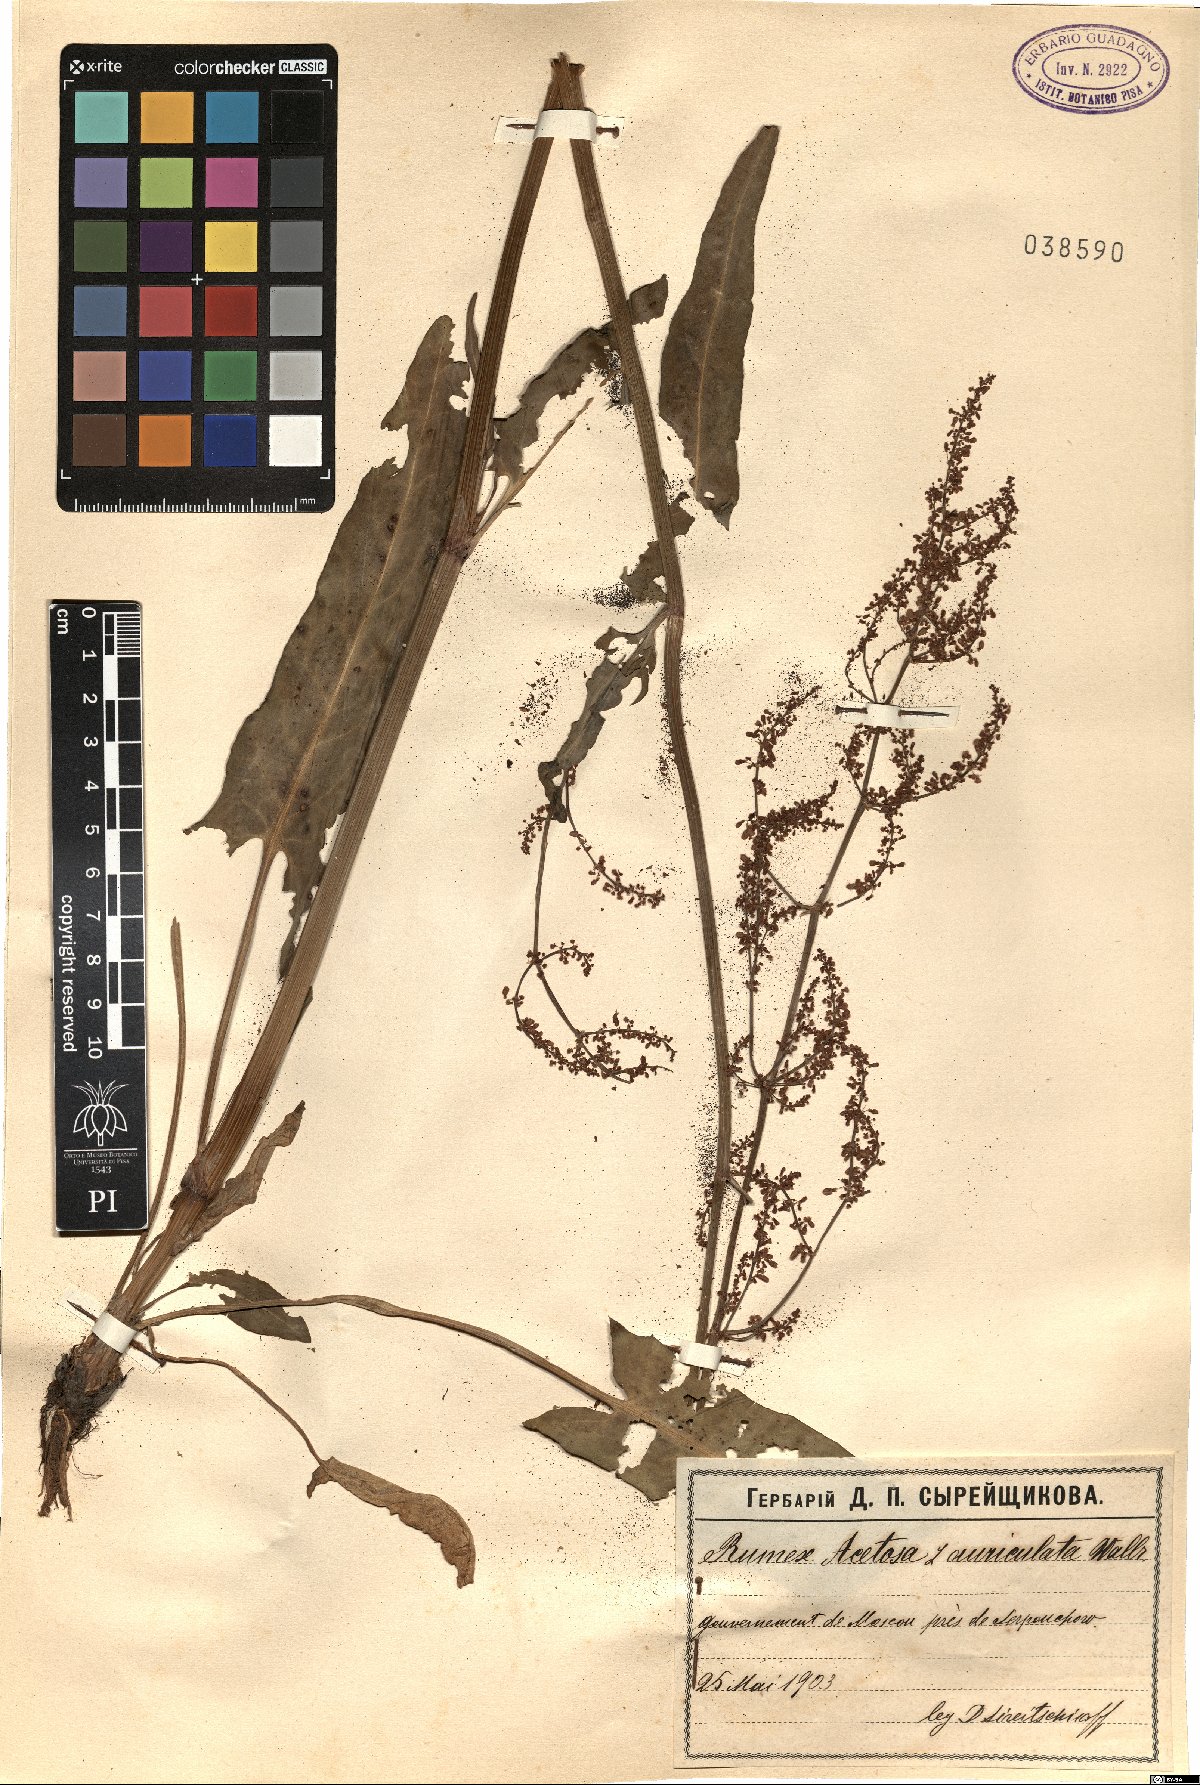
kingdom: Plantae
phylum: Tracheophyta
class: Magnoliopsida
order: Caryophyllales
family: Polygonaceae
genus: Rumex
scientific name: Rumex thyrsiflorus
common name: Garden sorrel
